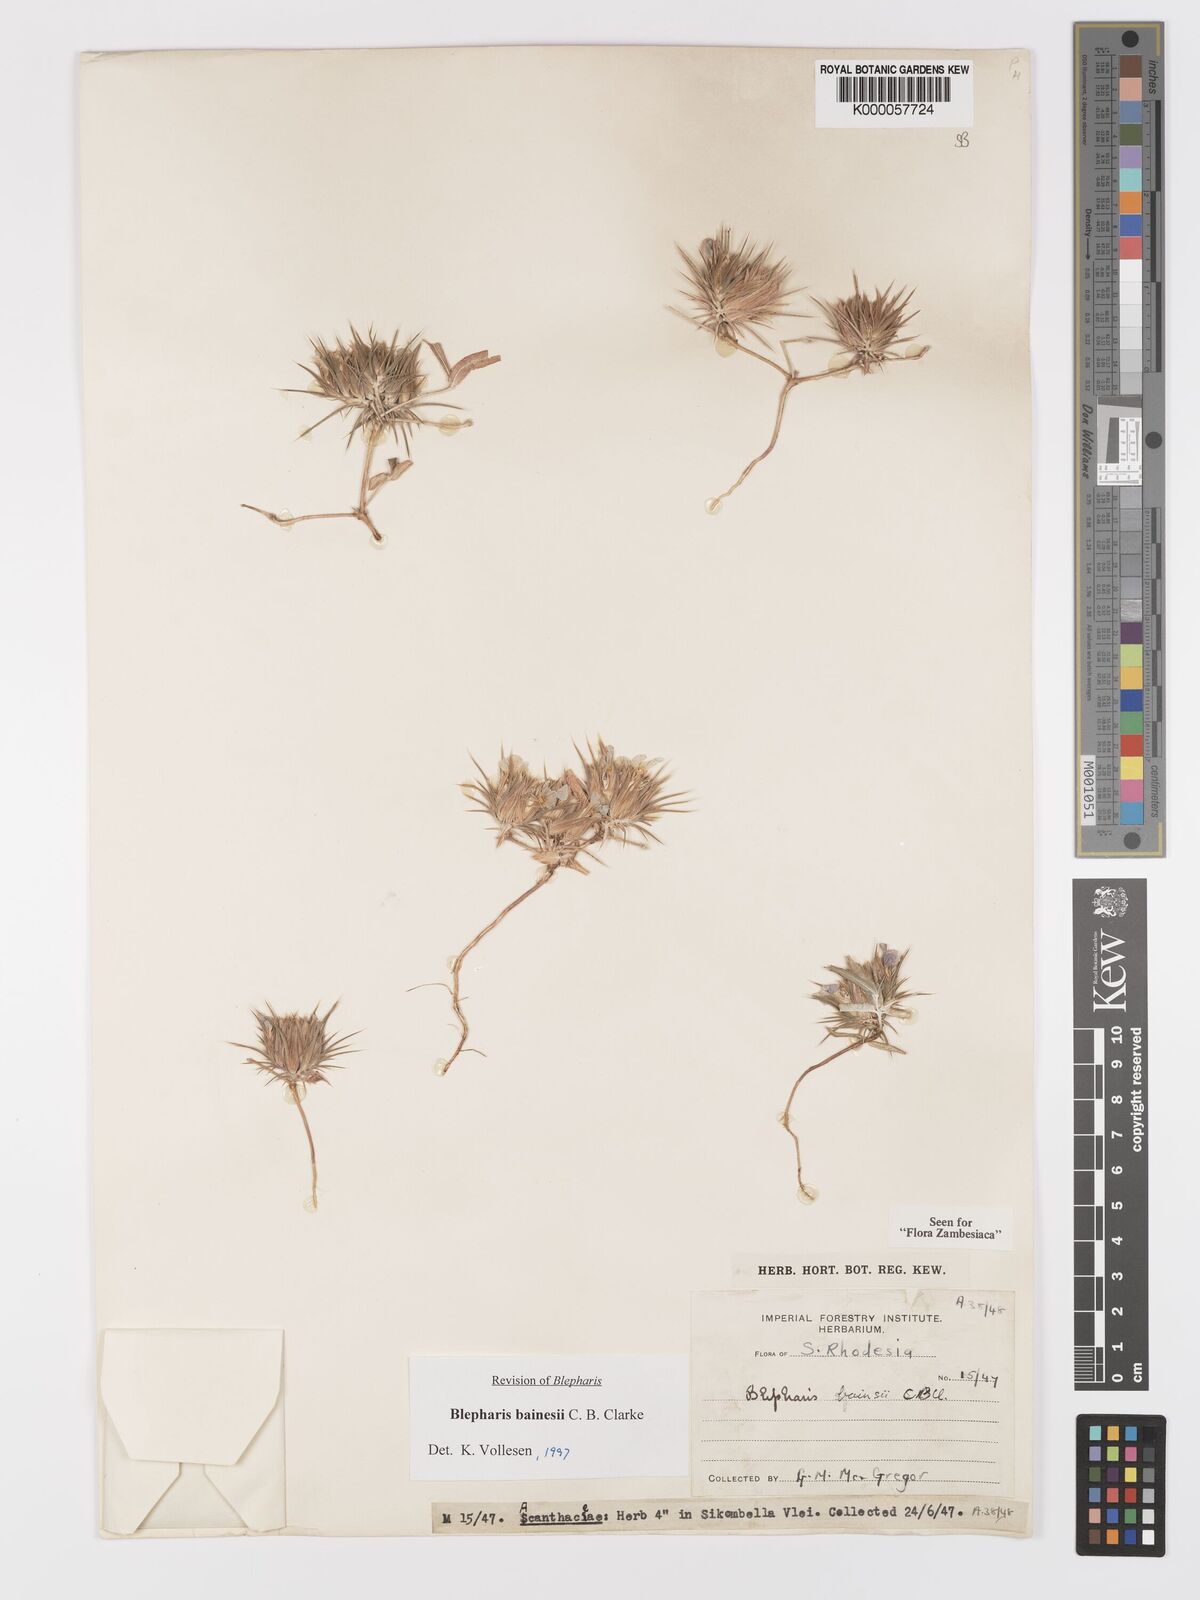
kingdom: Plantae
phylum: Tracheophyta
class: Magnoliopsida
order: Lamiales
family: Acanthaceae
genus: Blepharis
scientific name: Blepharis bainesii
